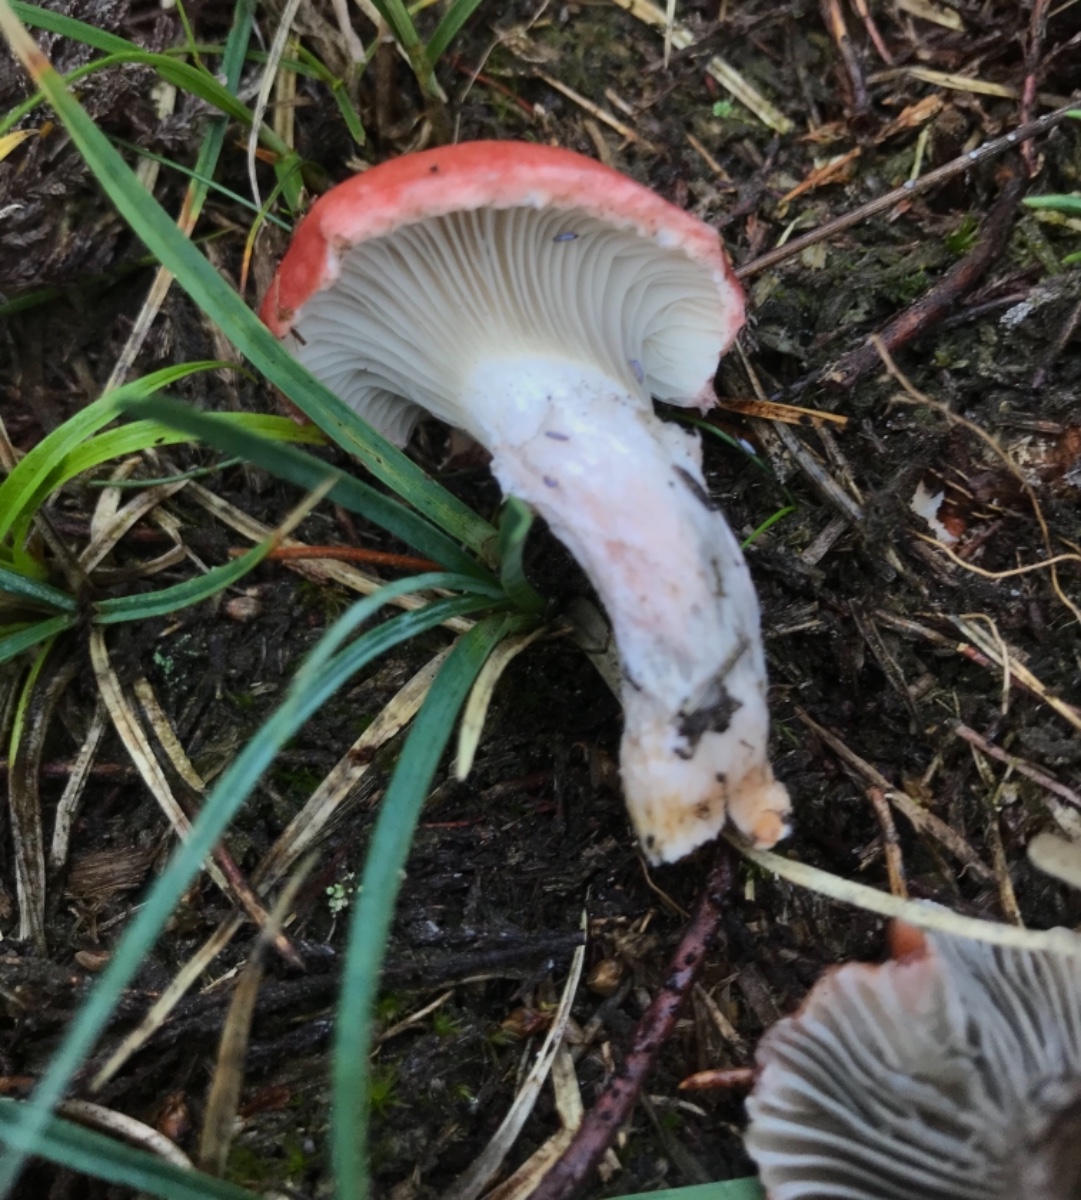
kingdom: Fungi
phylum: Basidiomycota
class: Agaricomycetes
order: Boletales
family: Gomphidiaceae
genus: Gomphidius
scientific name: Gomphidius roseus
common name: rosenrød slimslør
